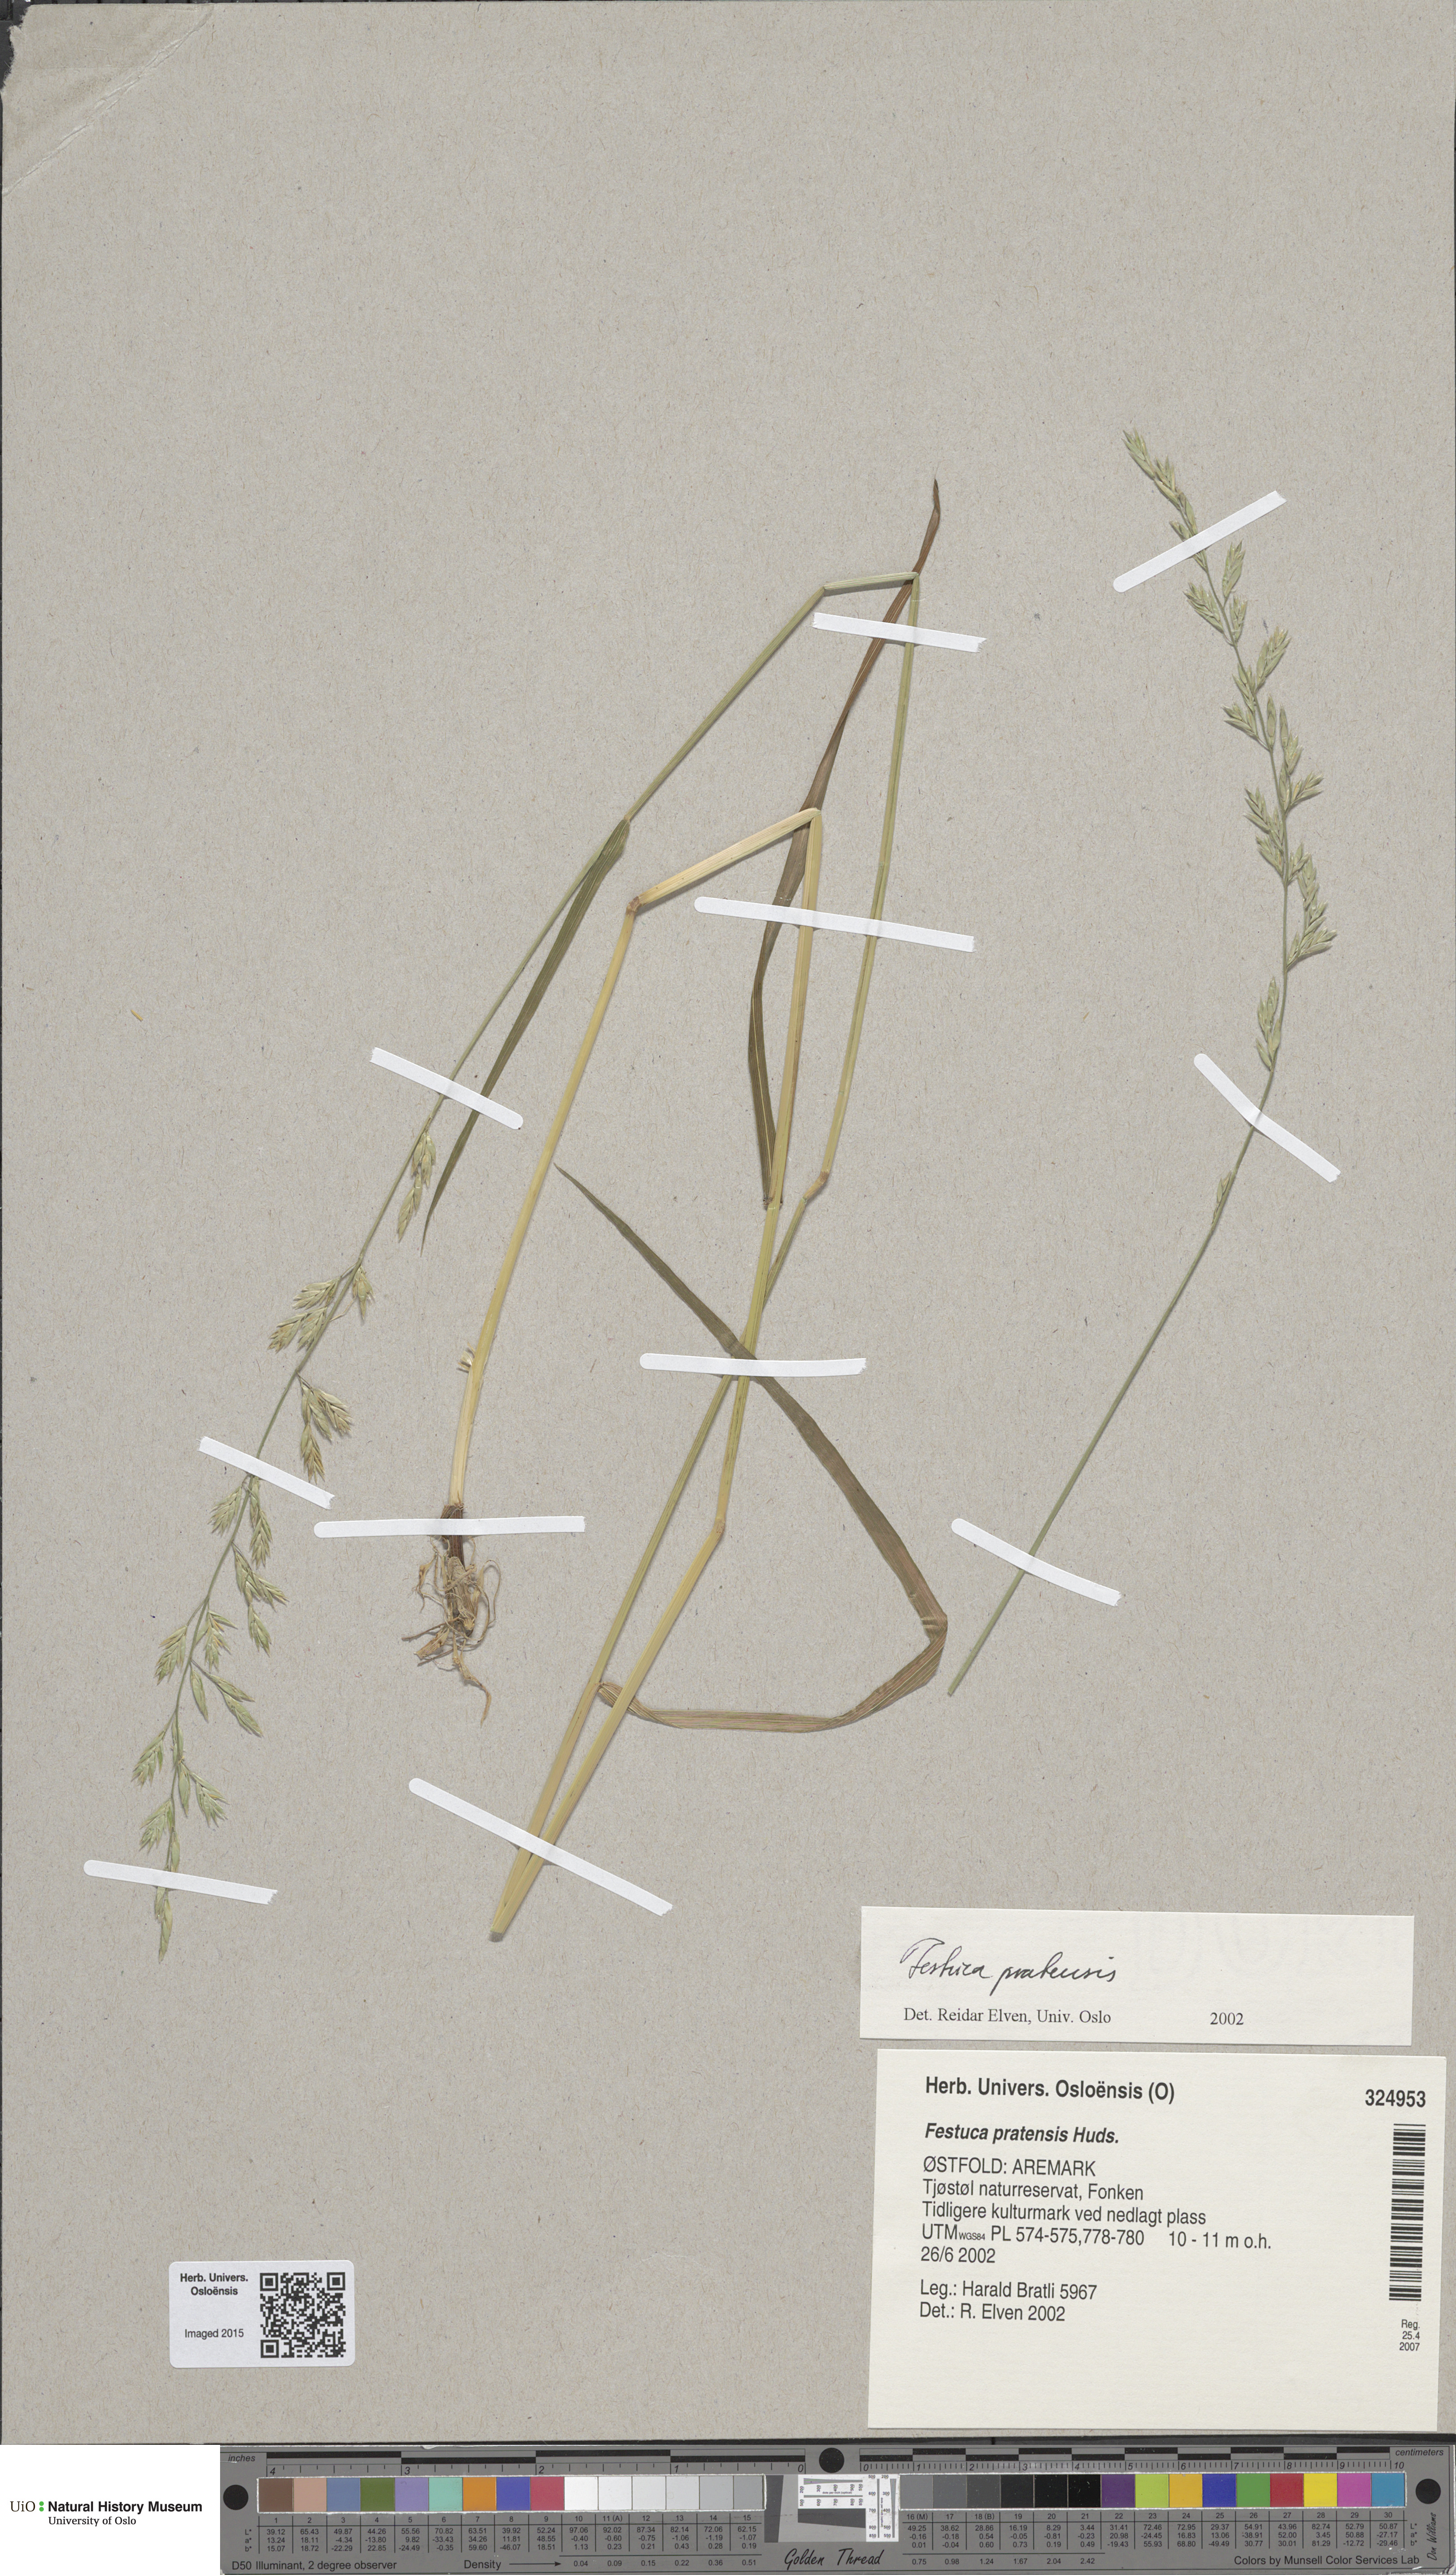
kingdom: Plantae
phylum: Tracheophyta
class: Liliopsida
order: Poales
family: Poaceae
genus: Lolium
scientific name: Lolium pratense
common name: Dover grass
